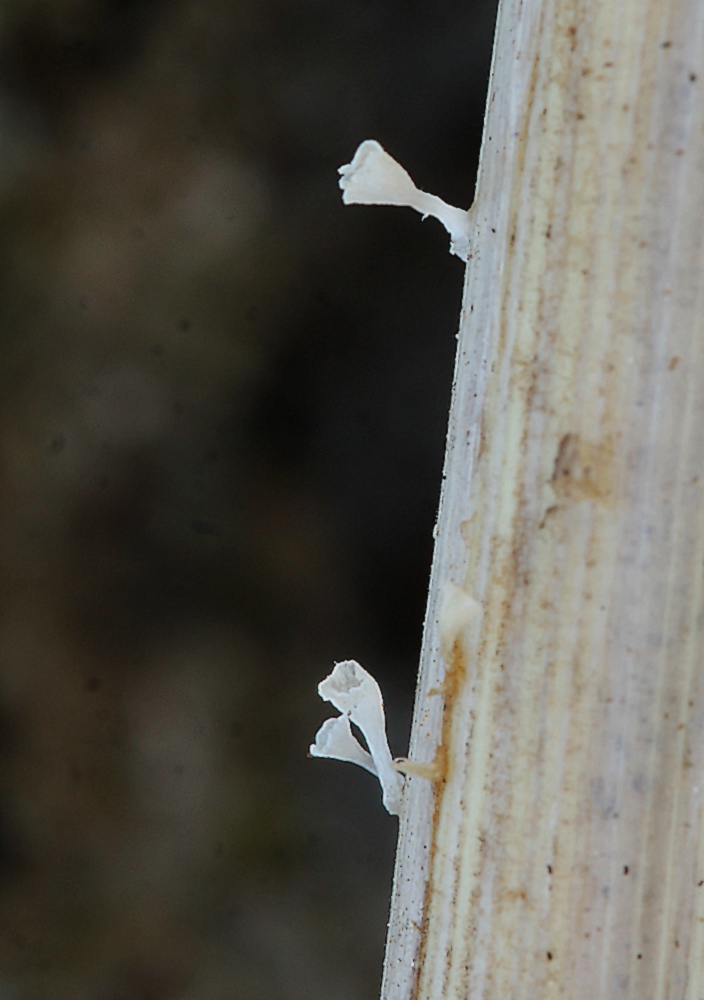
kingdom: Fungi
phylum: Basidiomycota
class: Agaricomycetes
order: Agaricales
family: Marasmiaceae
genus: Calyptella
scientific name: Calyptella
